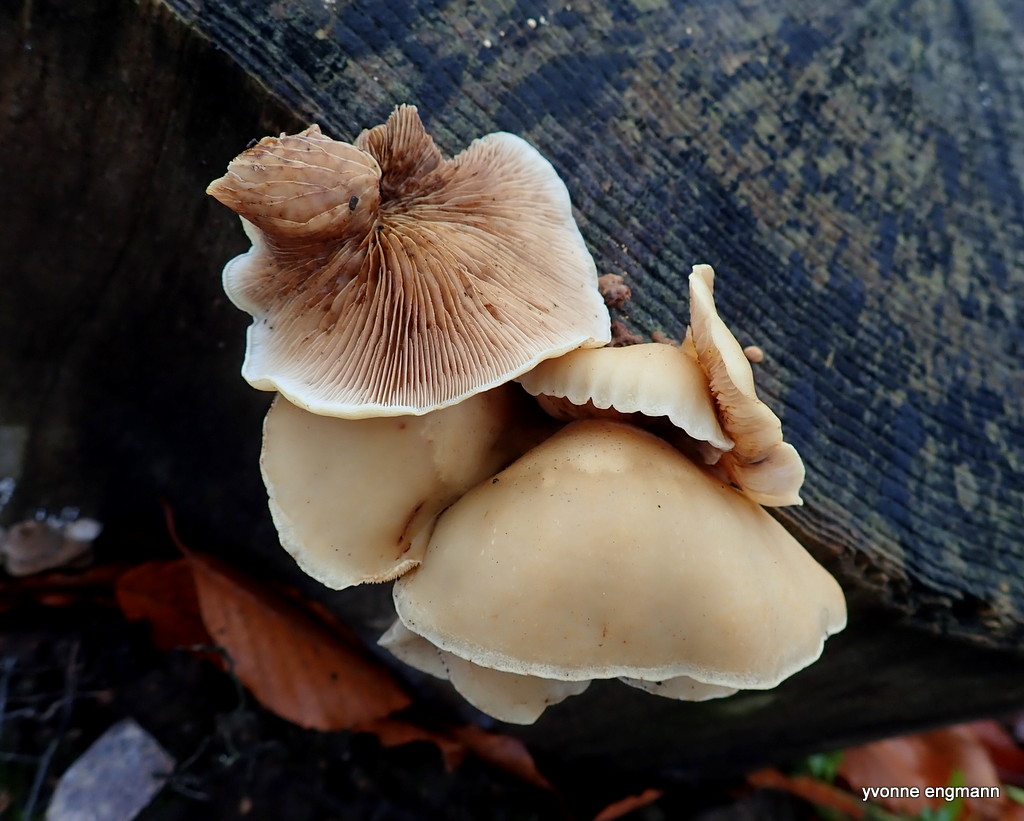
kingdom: Fungi
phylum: Basidiomycota
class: Agaricomycetes
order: Agaricales
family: Crepidotaceae
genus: Crepidotus
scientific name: Crepidotus mollis
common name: blød muslingesvamp
